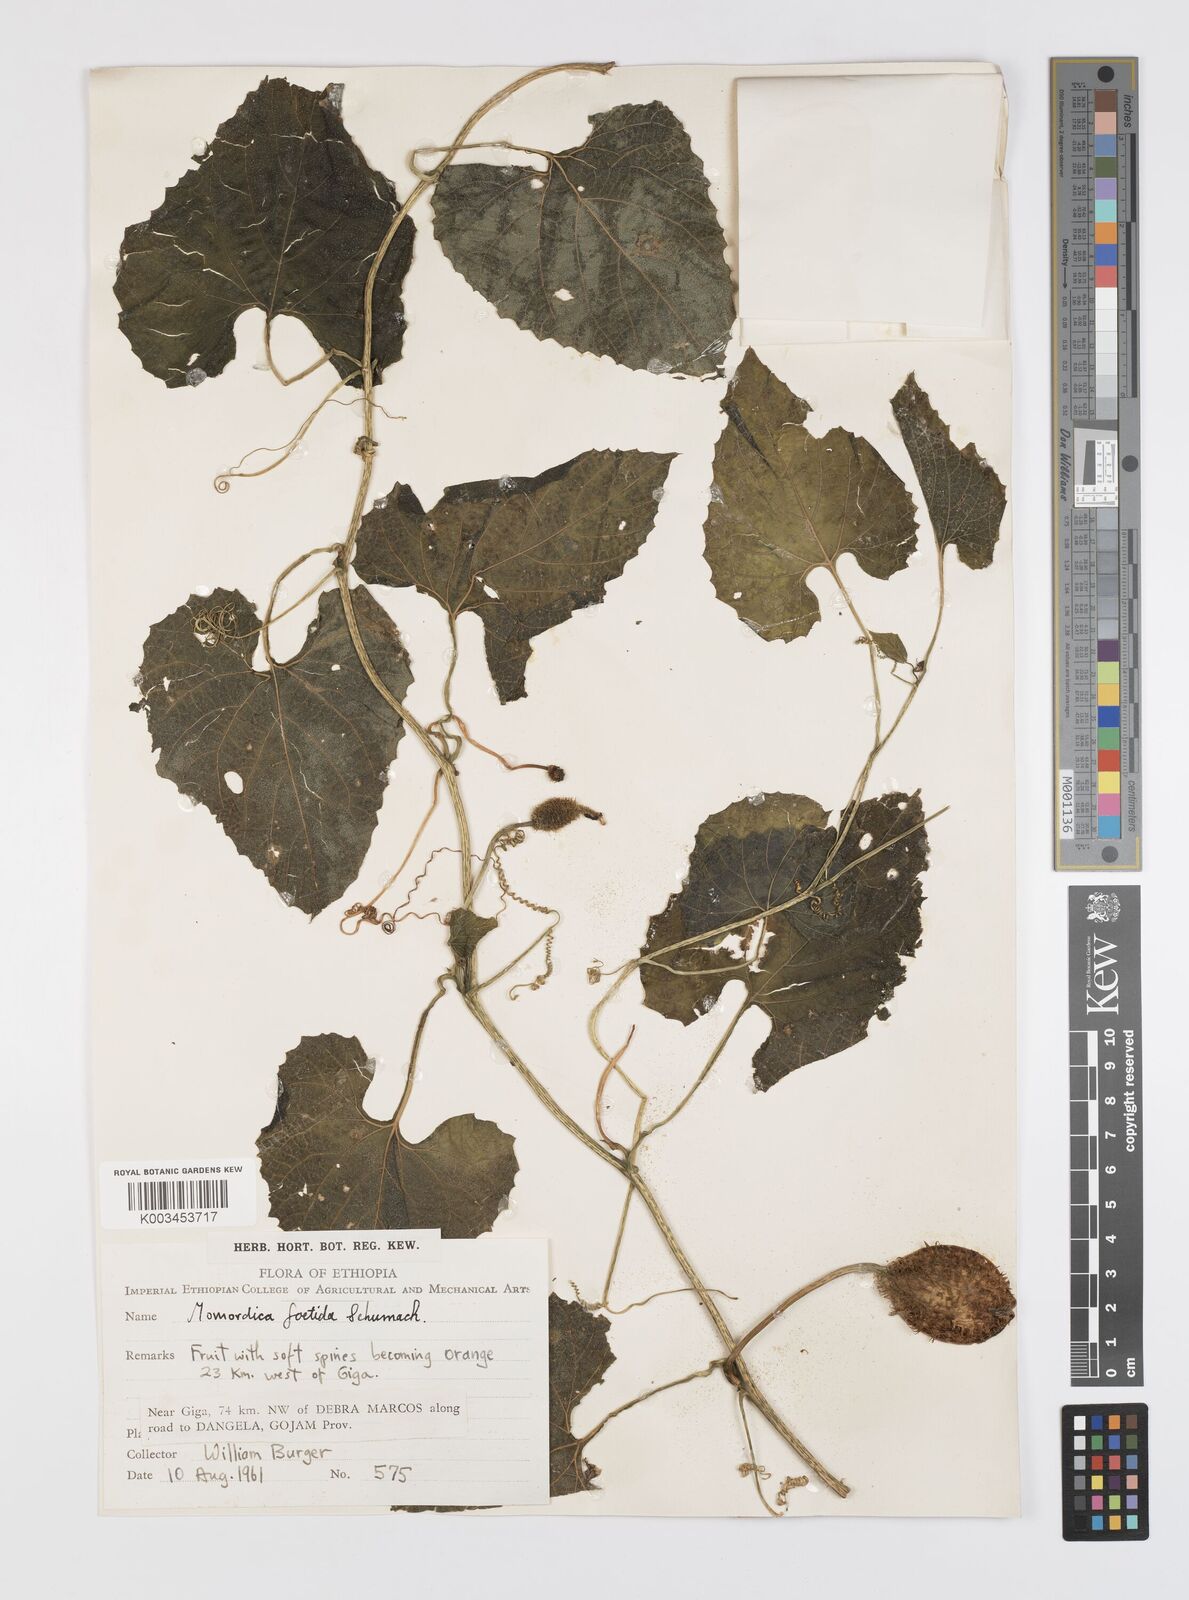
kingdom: Plantae
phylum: Tracheophyta
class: Magnoliopsida
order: Cucurbitales
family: Cucurbitaceae
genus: Momordica
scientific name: Momordica foetida
